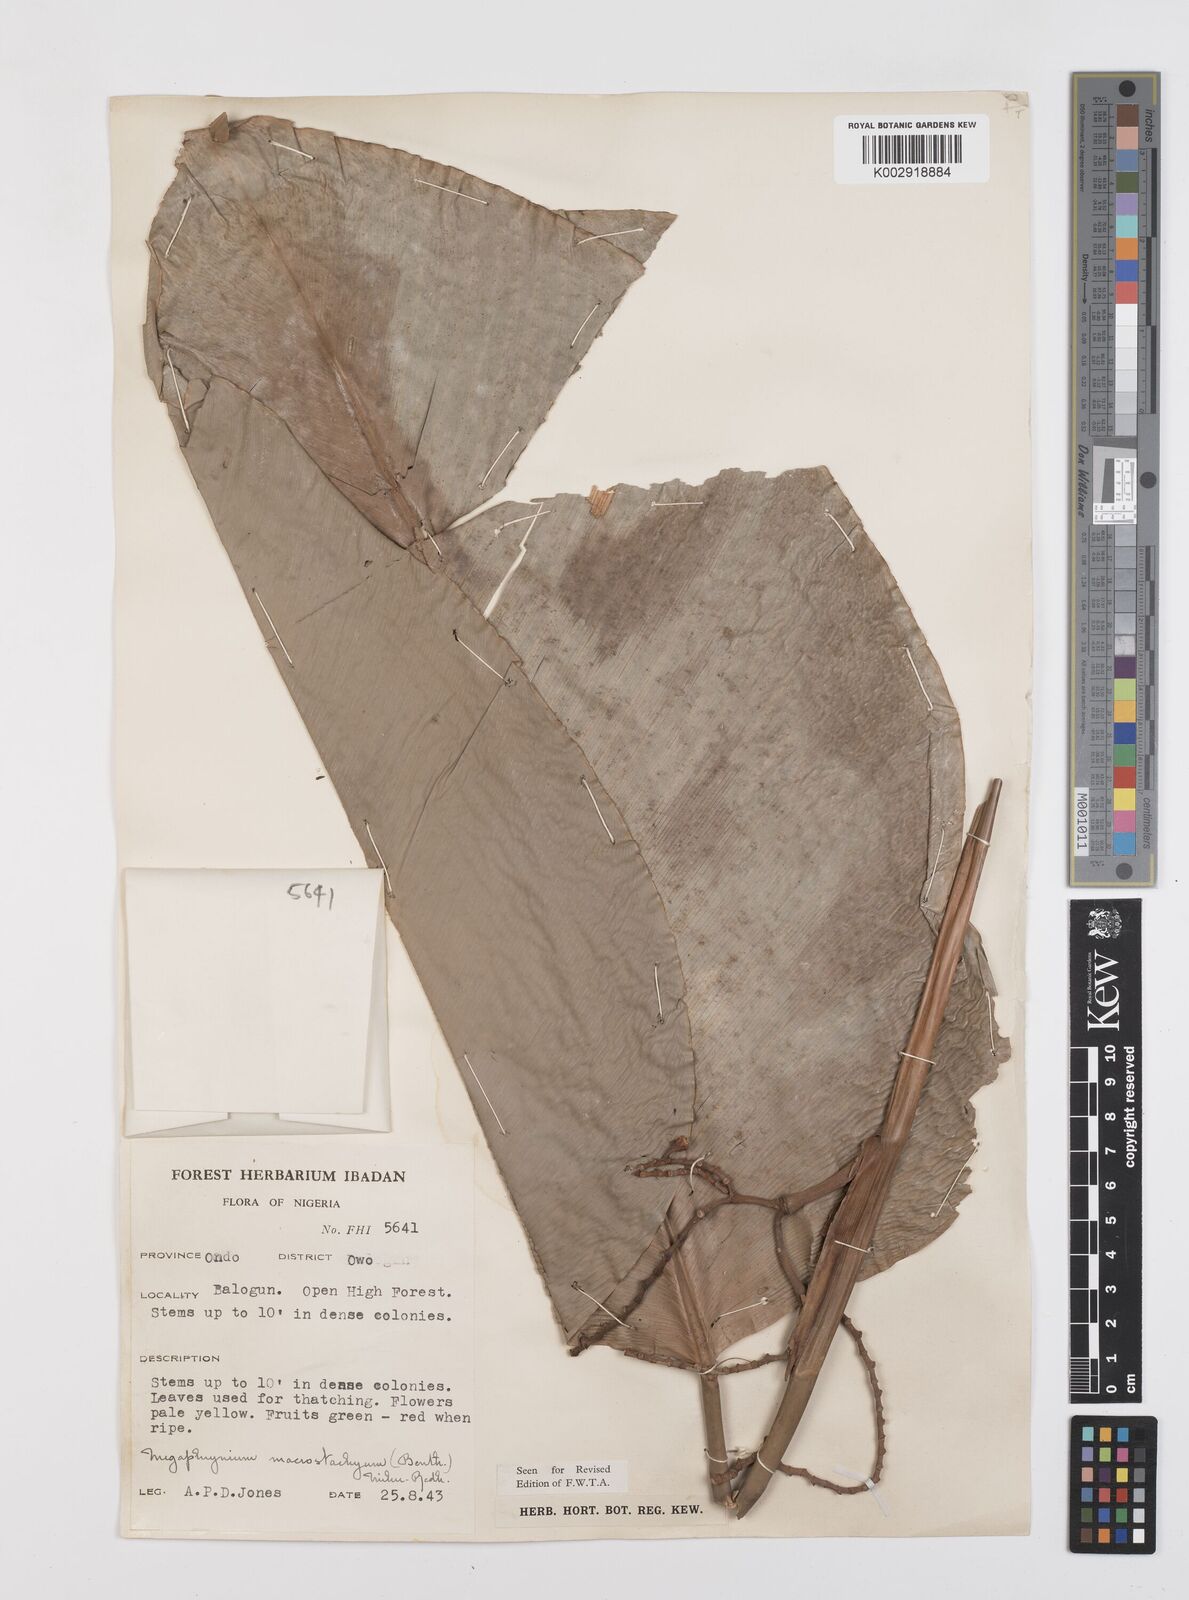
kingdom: Plantae
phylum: Tracheophyta
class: Liliopsida
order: Zingiberales
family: Marantaceae
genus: Megaphrynium
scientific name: Megaphrynium macrostachyum
